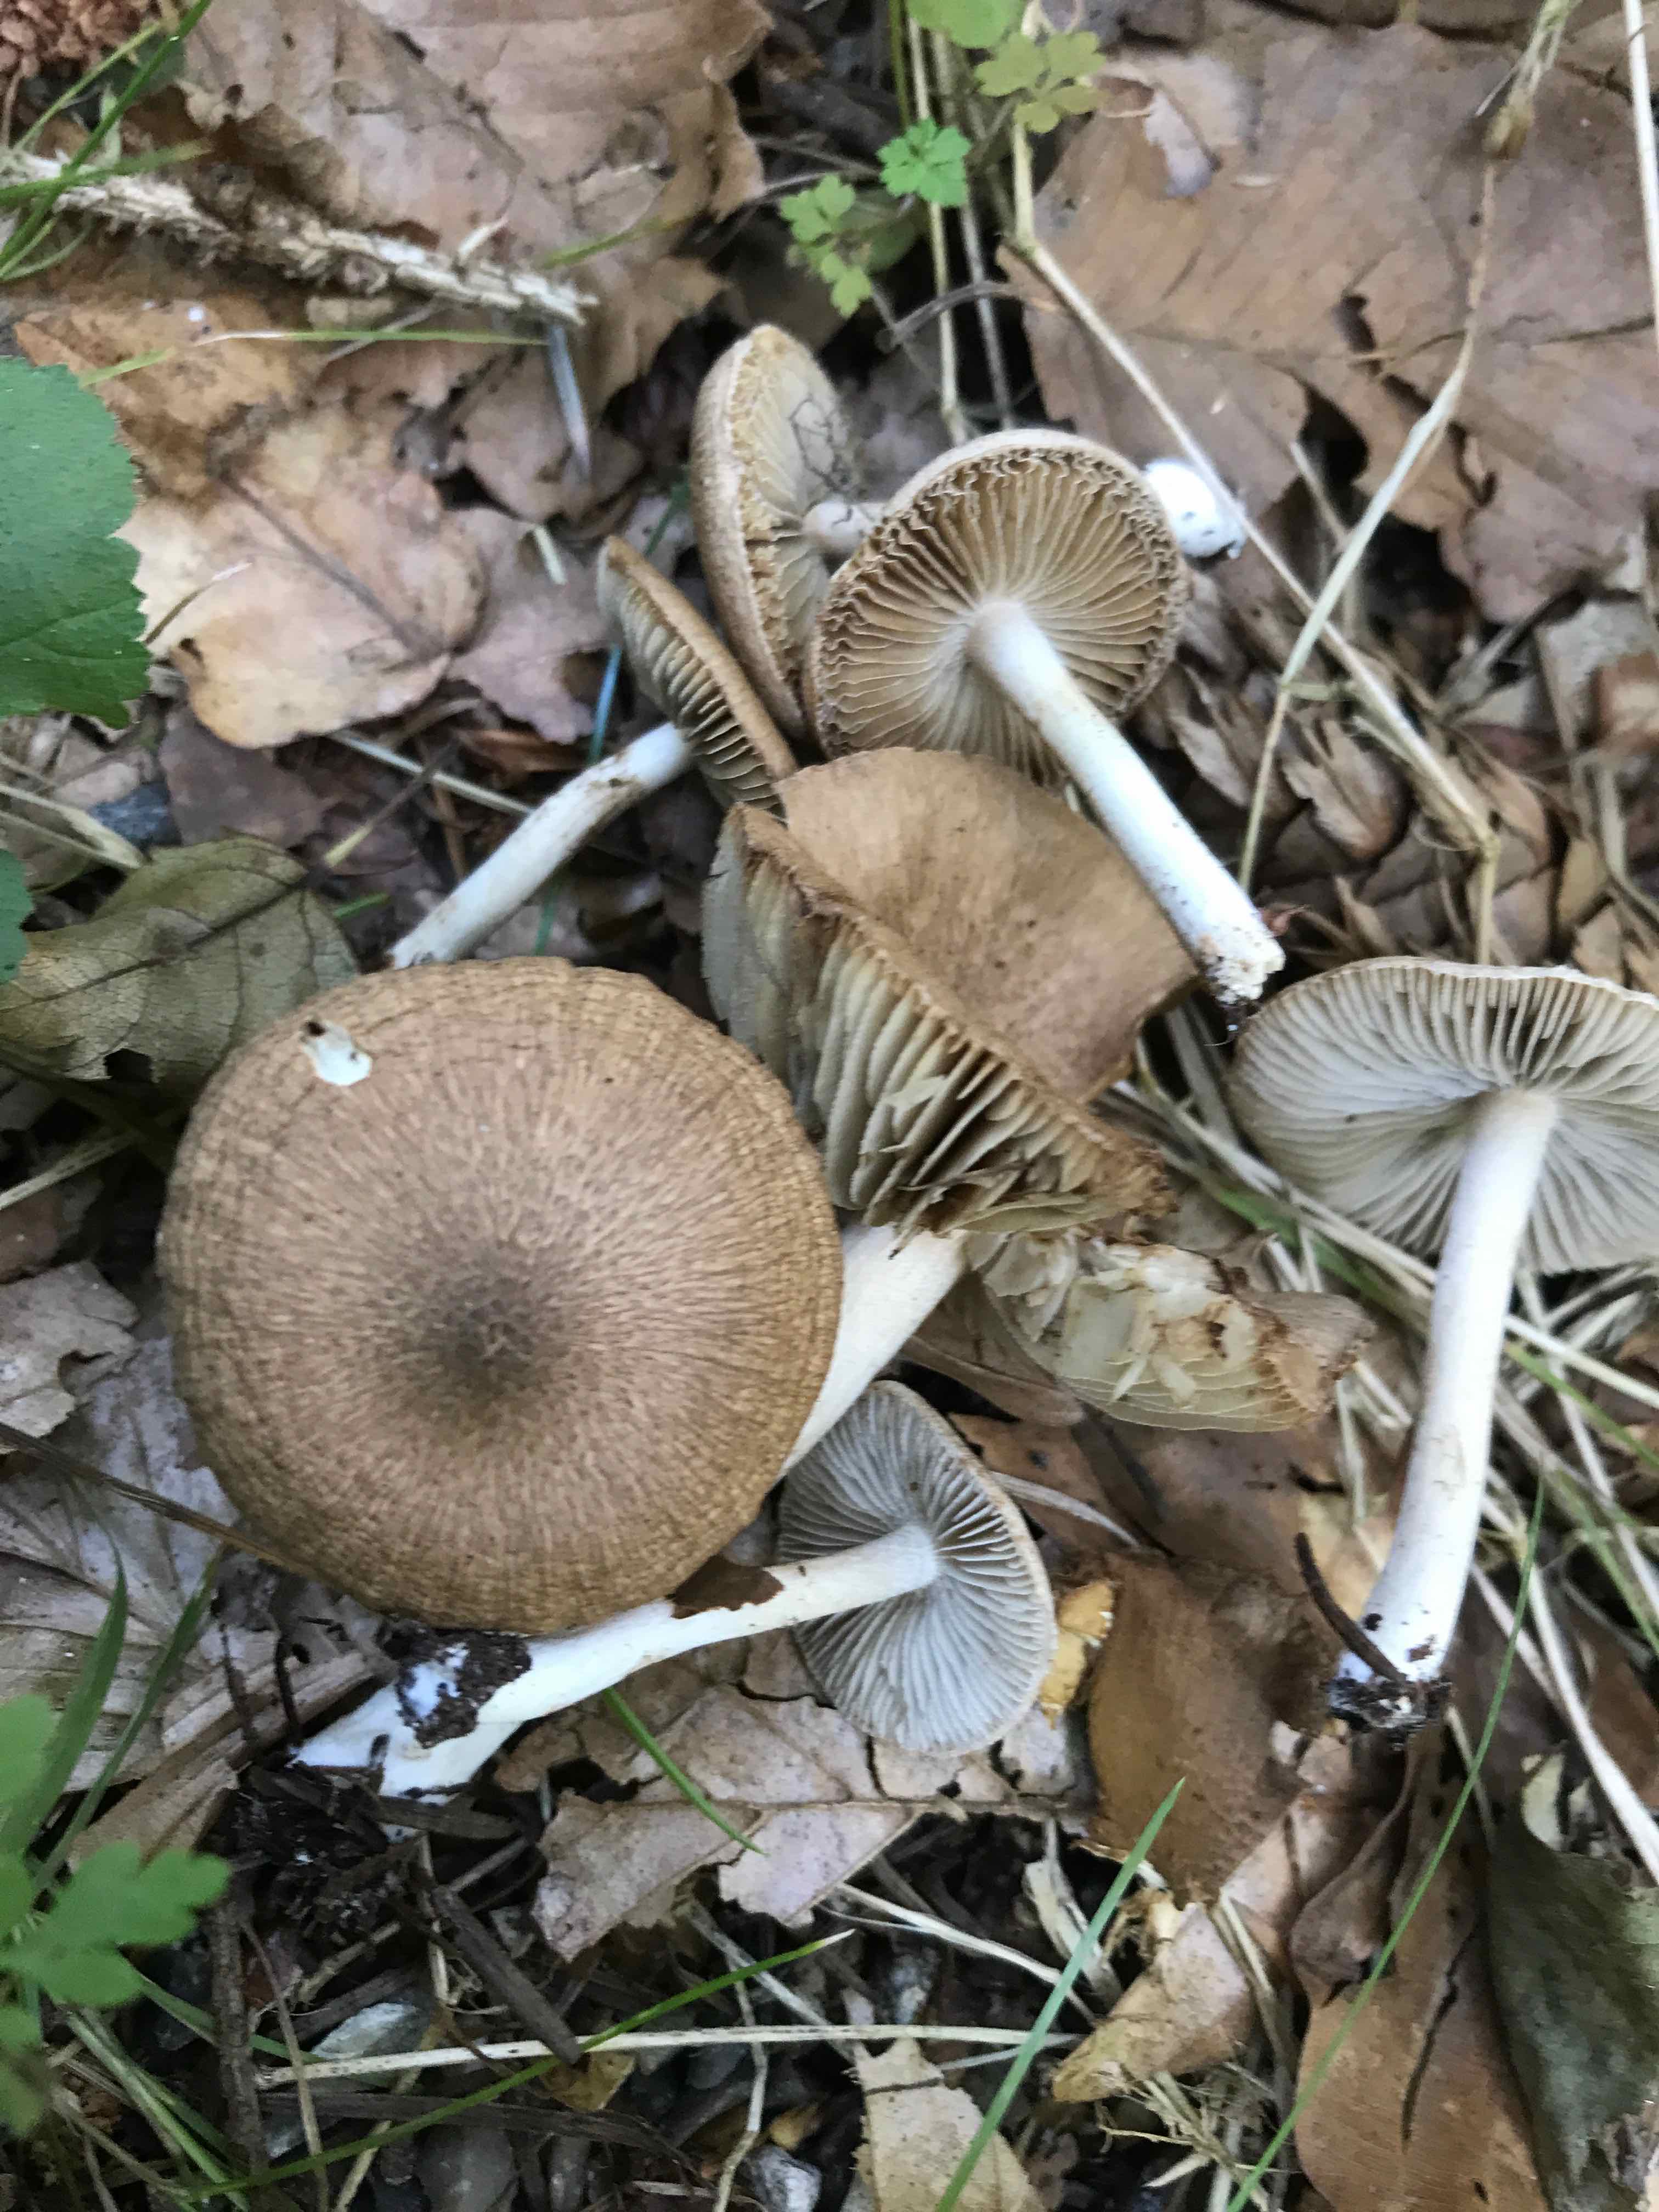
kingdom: Fungi
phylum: Basidiomycota
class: Agaricomycetes
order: Agaricales
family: Inocybaceae
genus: Inocybe
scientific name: Inocybe
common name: trævlhat
